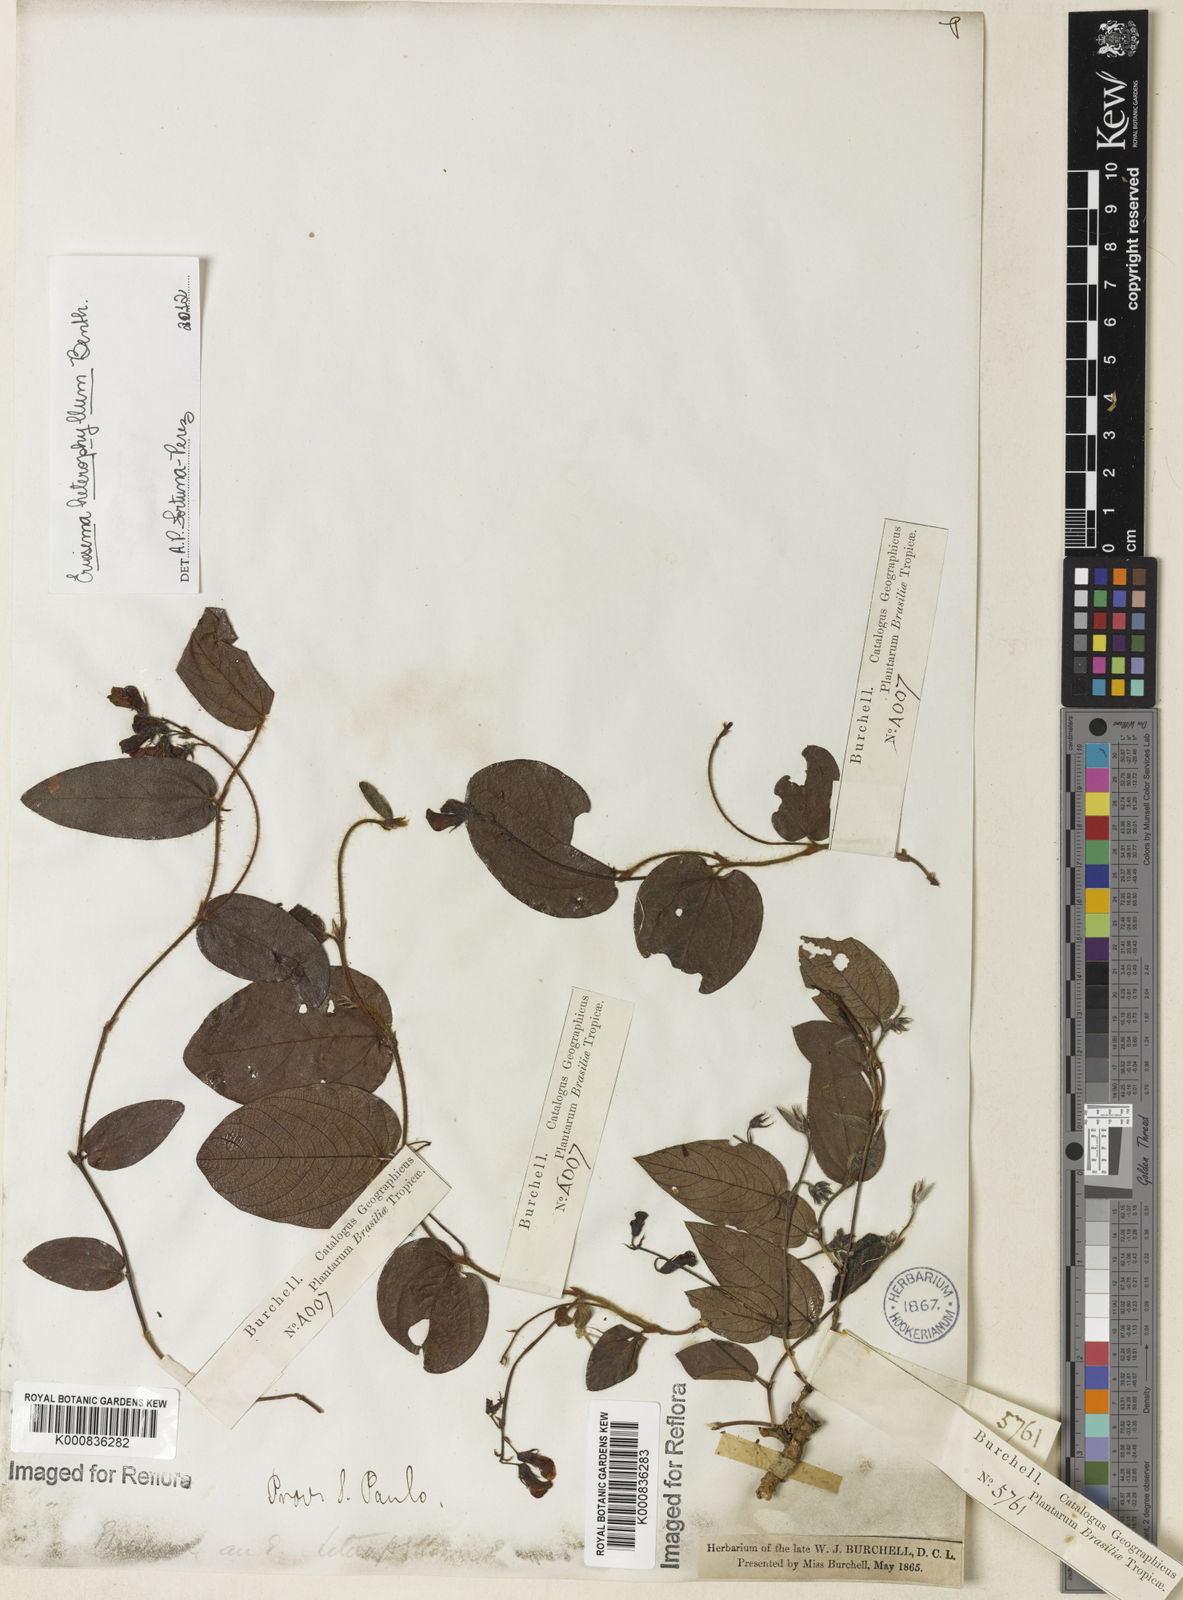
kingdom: Plantae
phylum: Tracheophyta
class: Magnoliopsida
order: Fabales
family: Fabaceae
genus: Eriosema
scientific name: Eriosema heterophyllum
